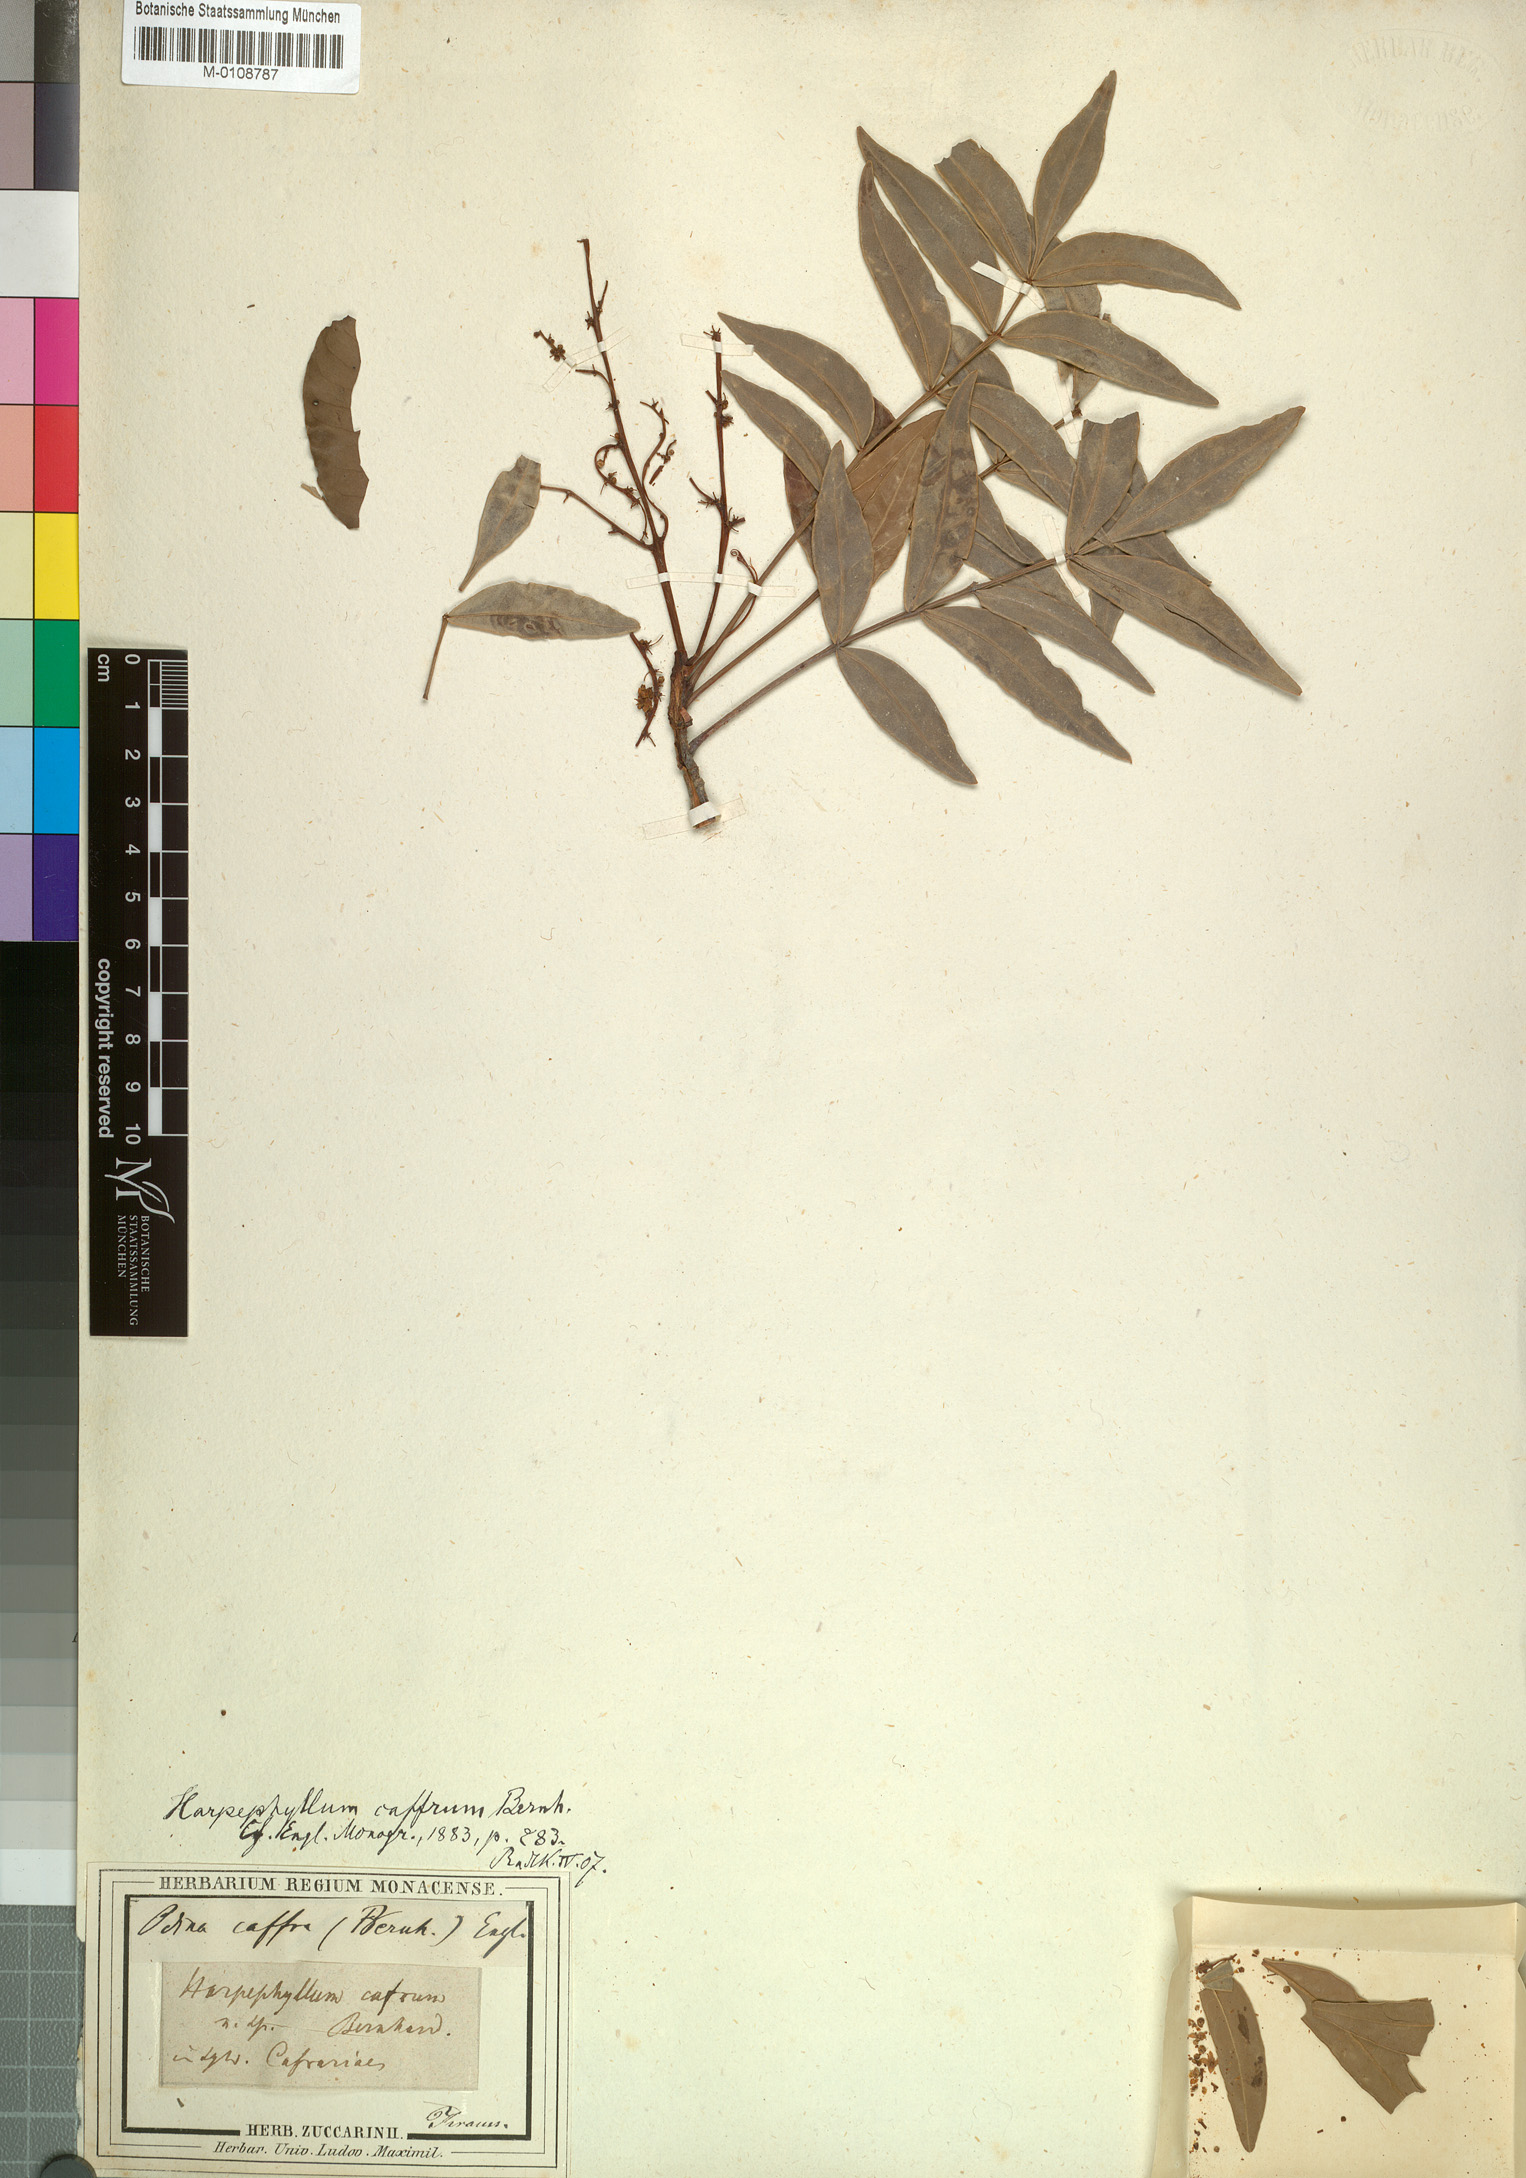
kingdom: Plantae
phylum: Tracheophyta
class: Magnoliopsida
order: Sapindales
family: Anacardiaceae
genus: Harpephyllum
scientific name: Harpephyllum caffrum
